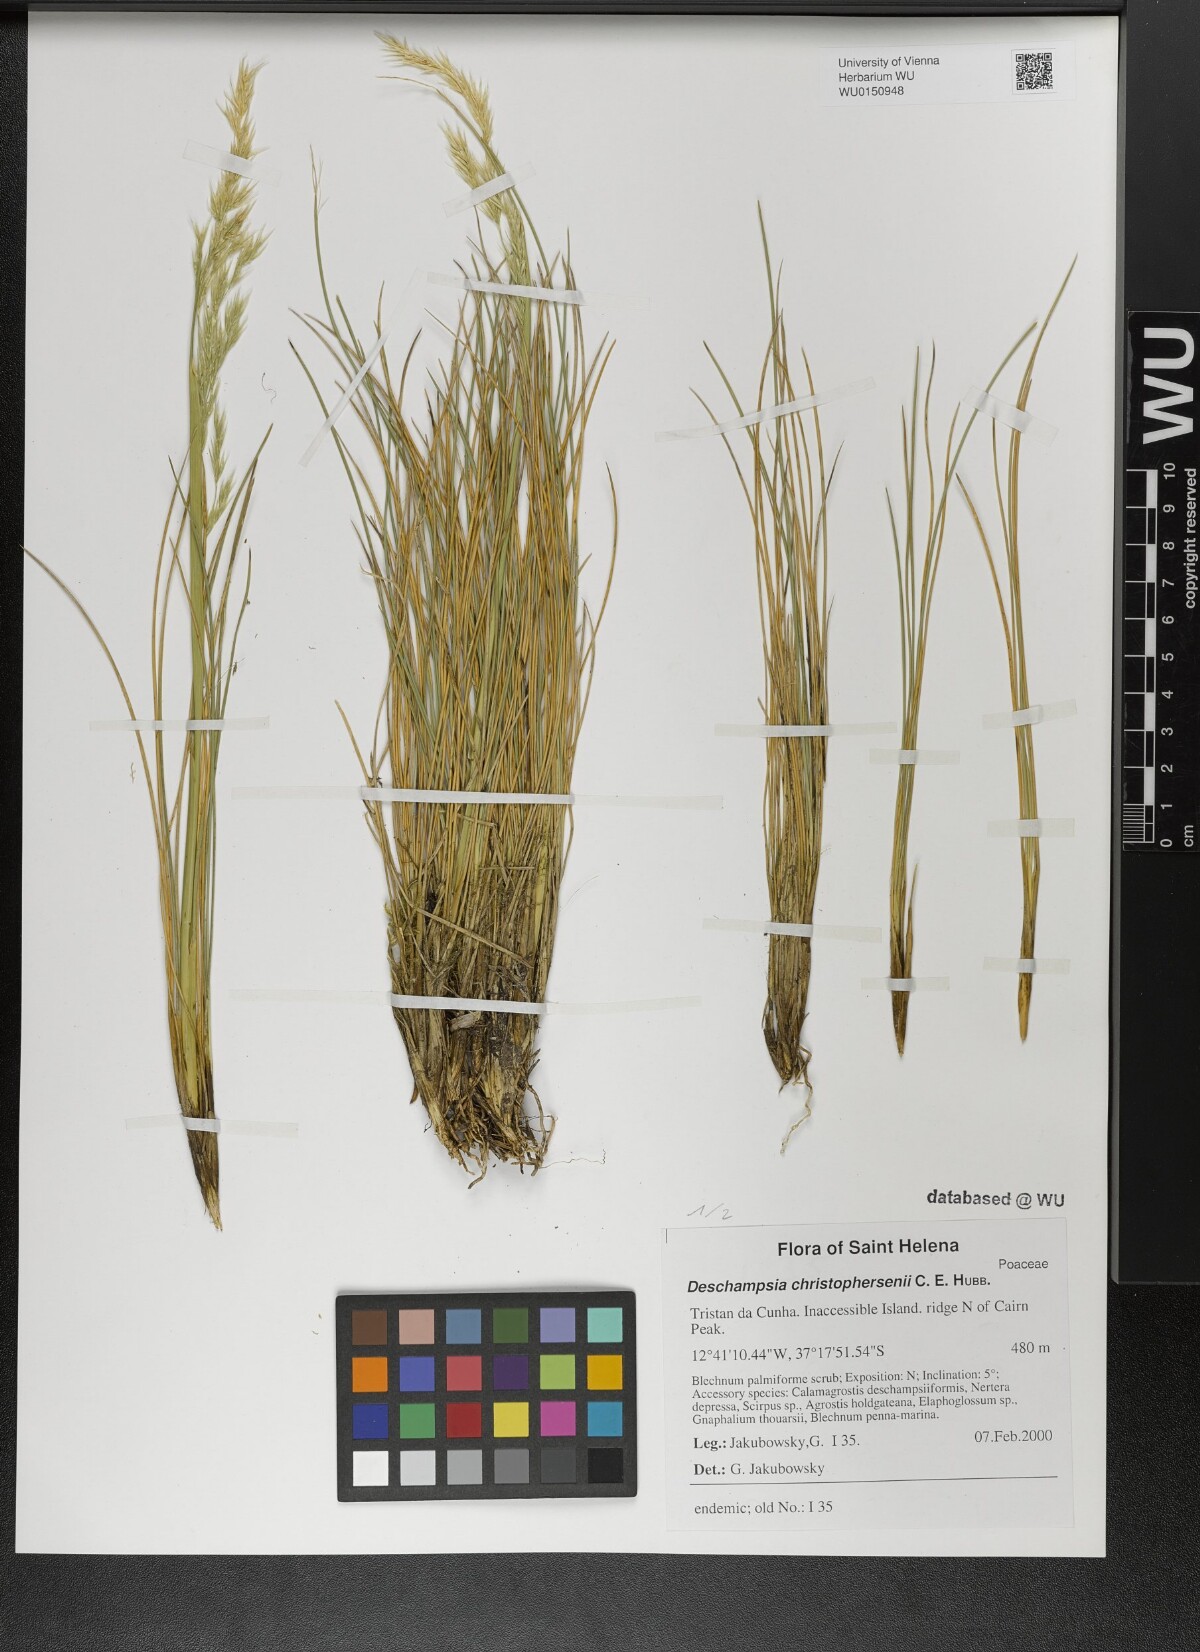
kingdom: Plantae
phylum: Tracheophyta
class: Liliopsida
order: Poales
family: Poaceae
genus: Deschampsia
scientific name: Deschampsia christophersenii
